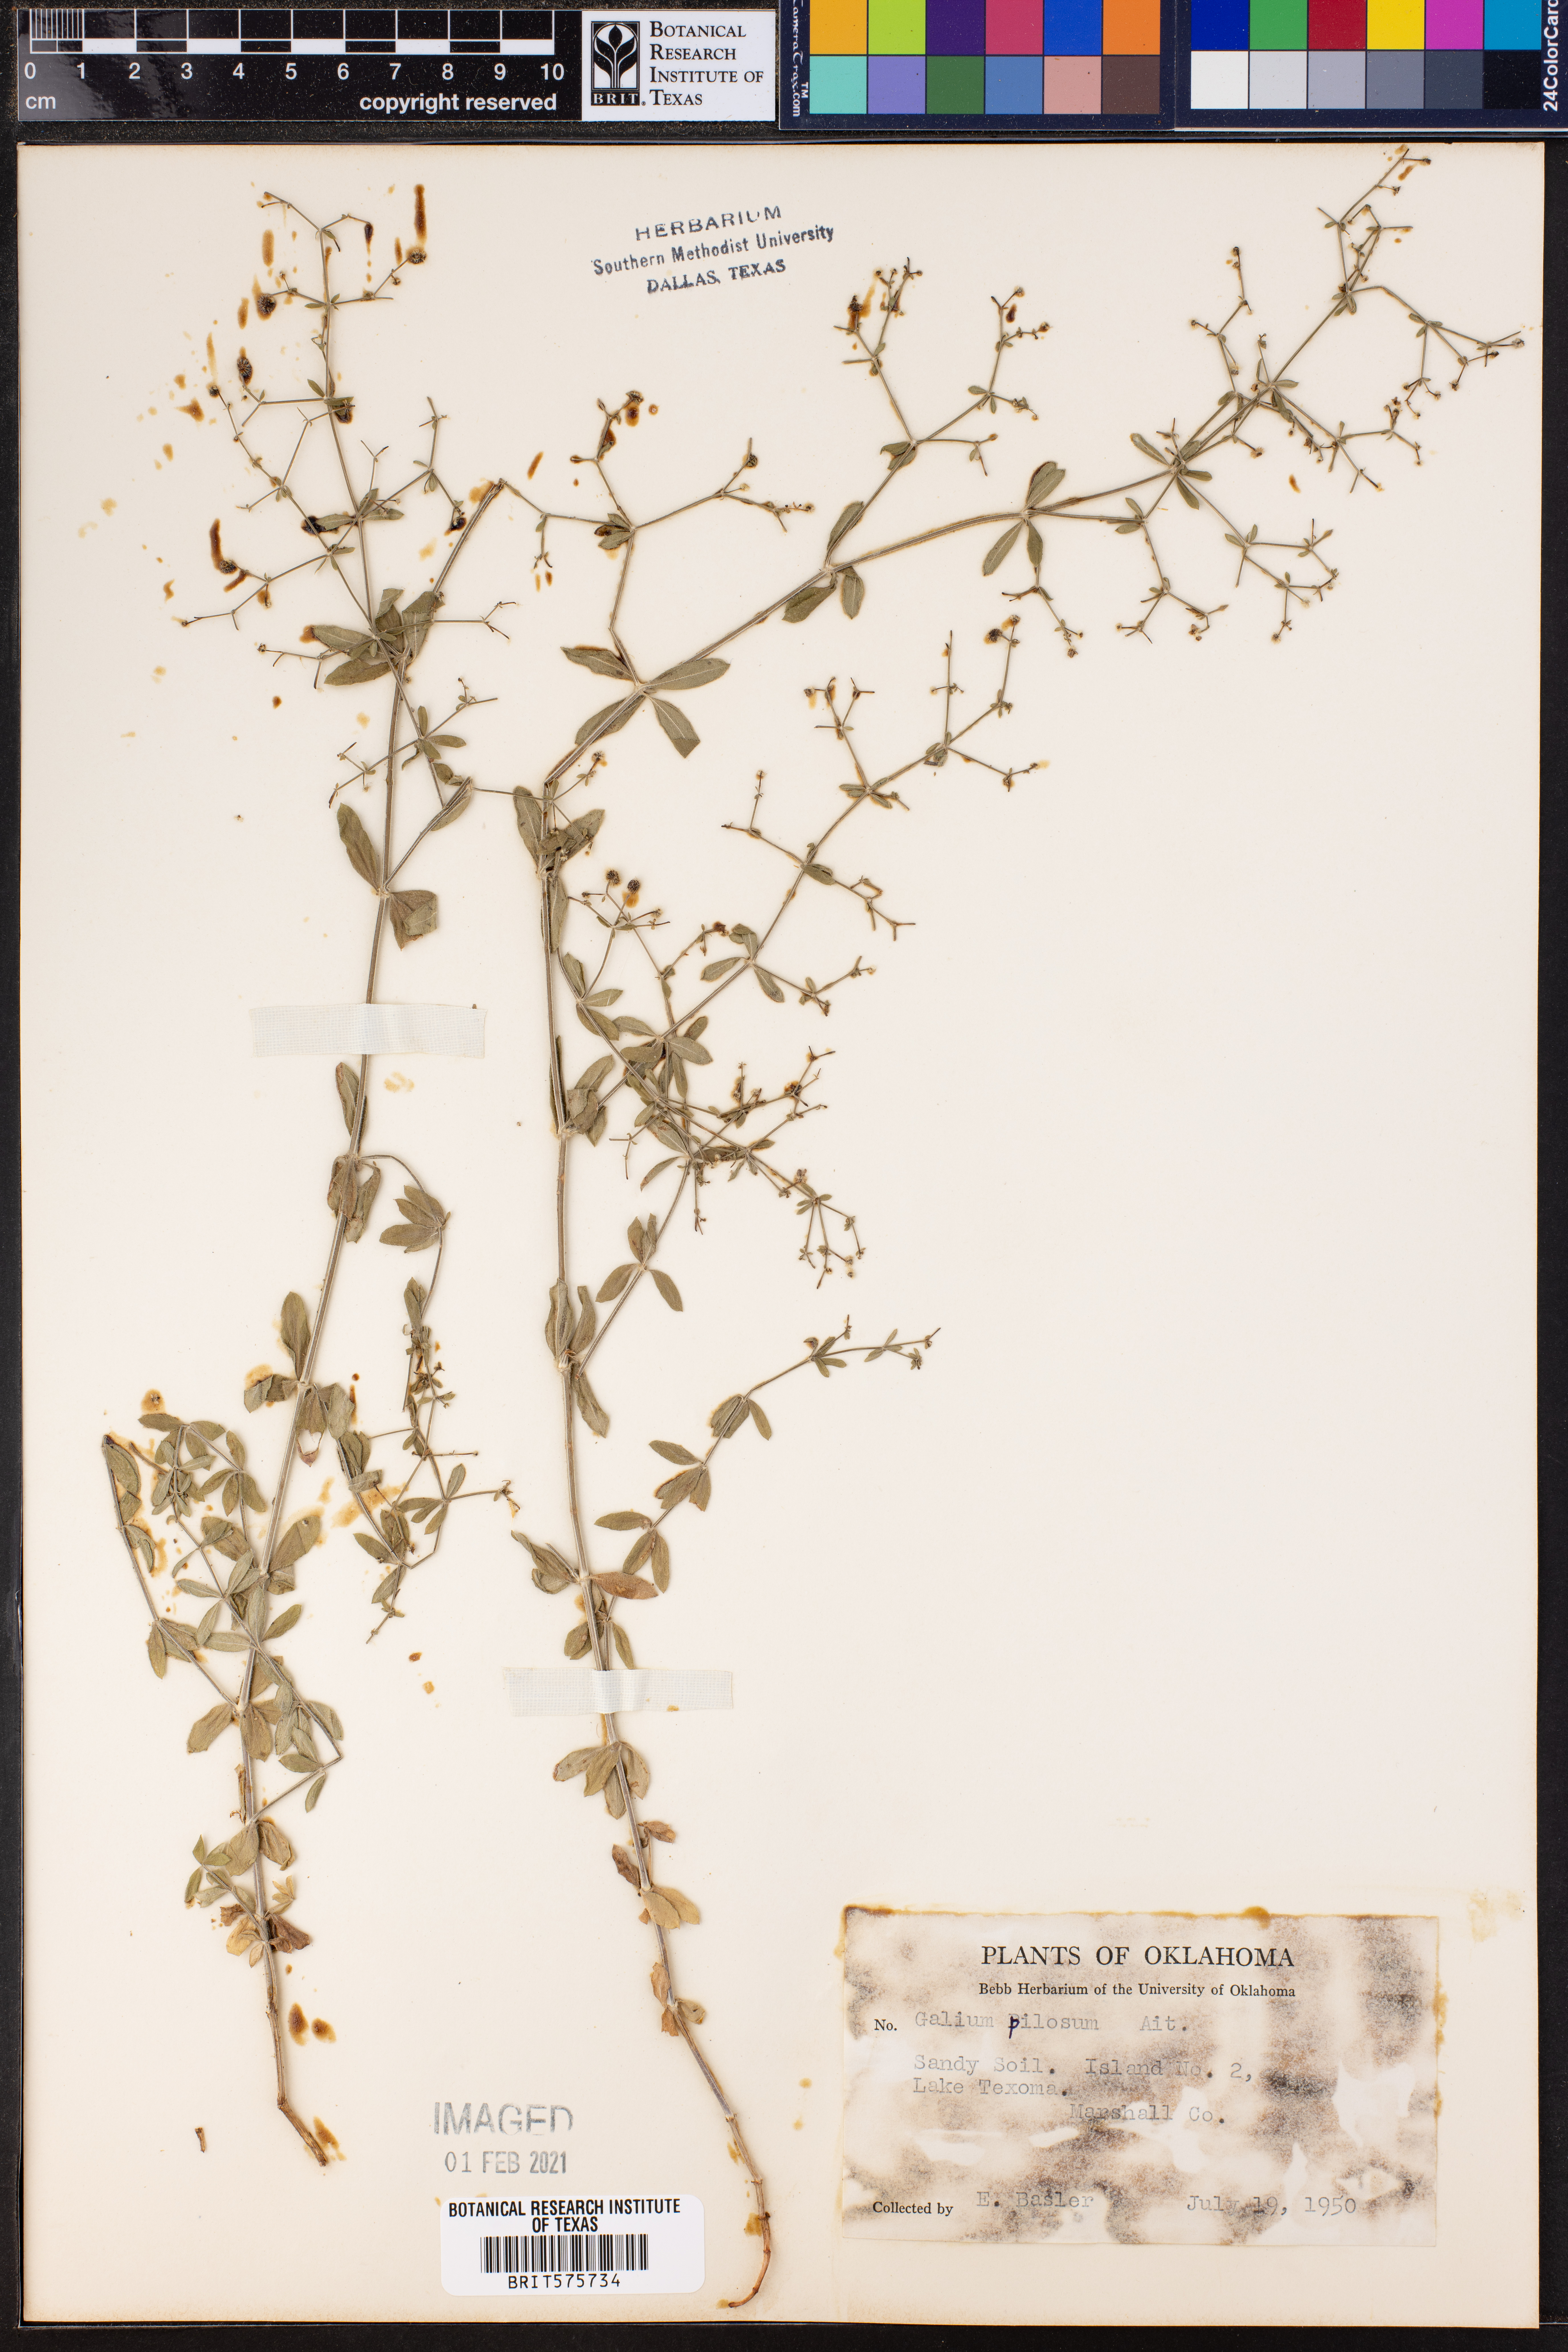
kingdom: Plantae
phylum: Tracheophyta
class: Magnoliopsida
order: Gentianales
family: Rubiaceae
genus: Galium
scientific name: Galium pilosum
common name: Hairy bedstraw
